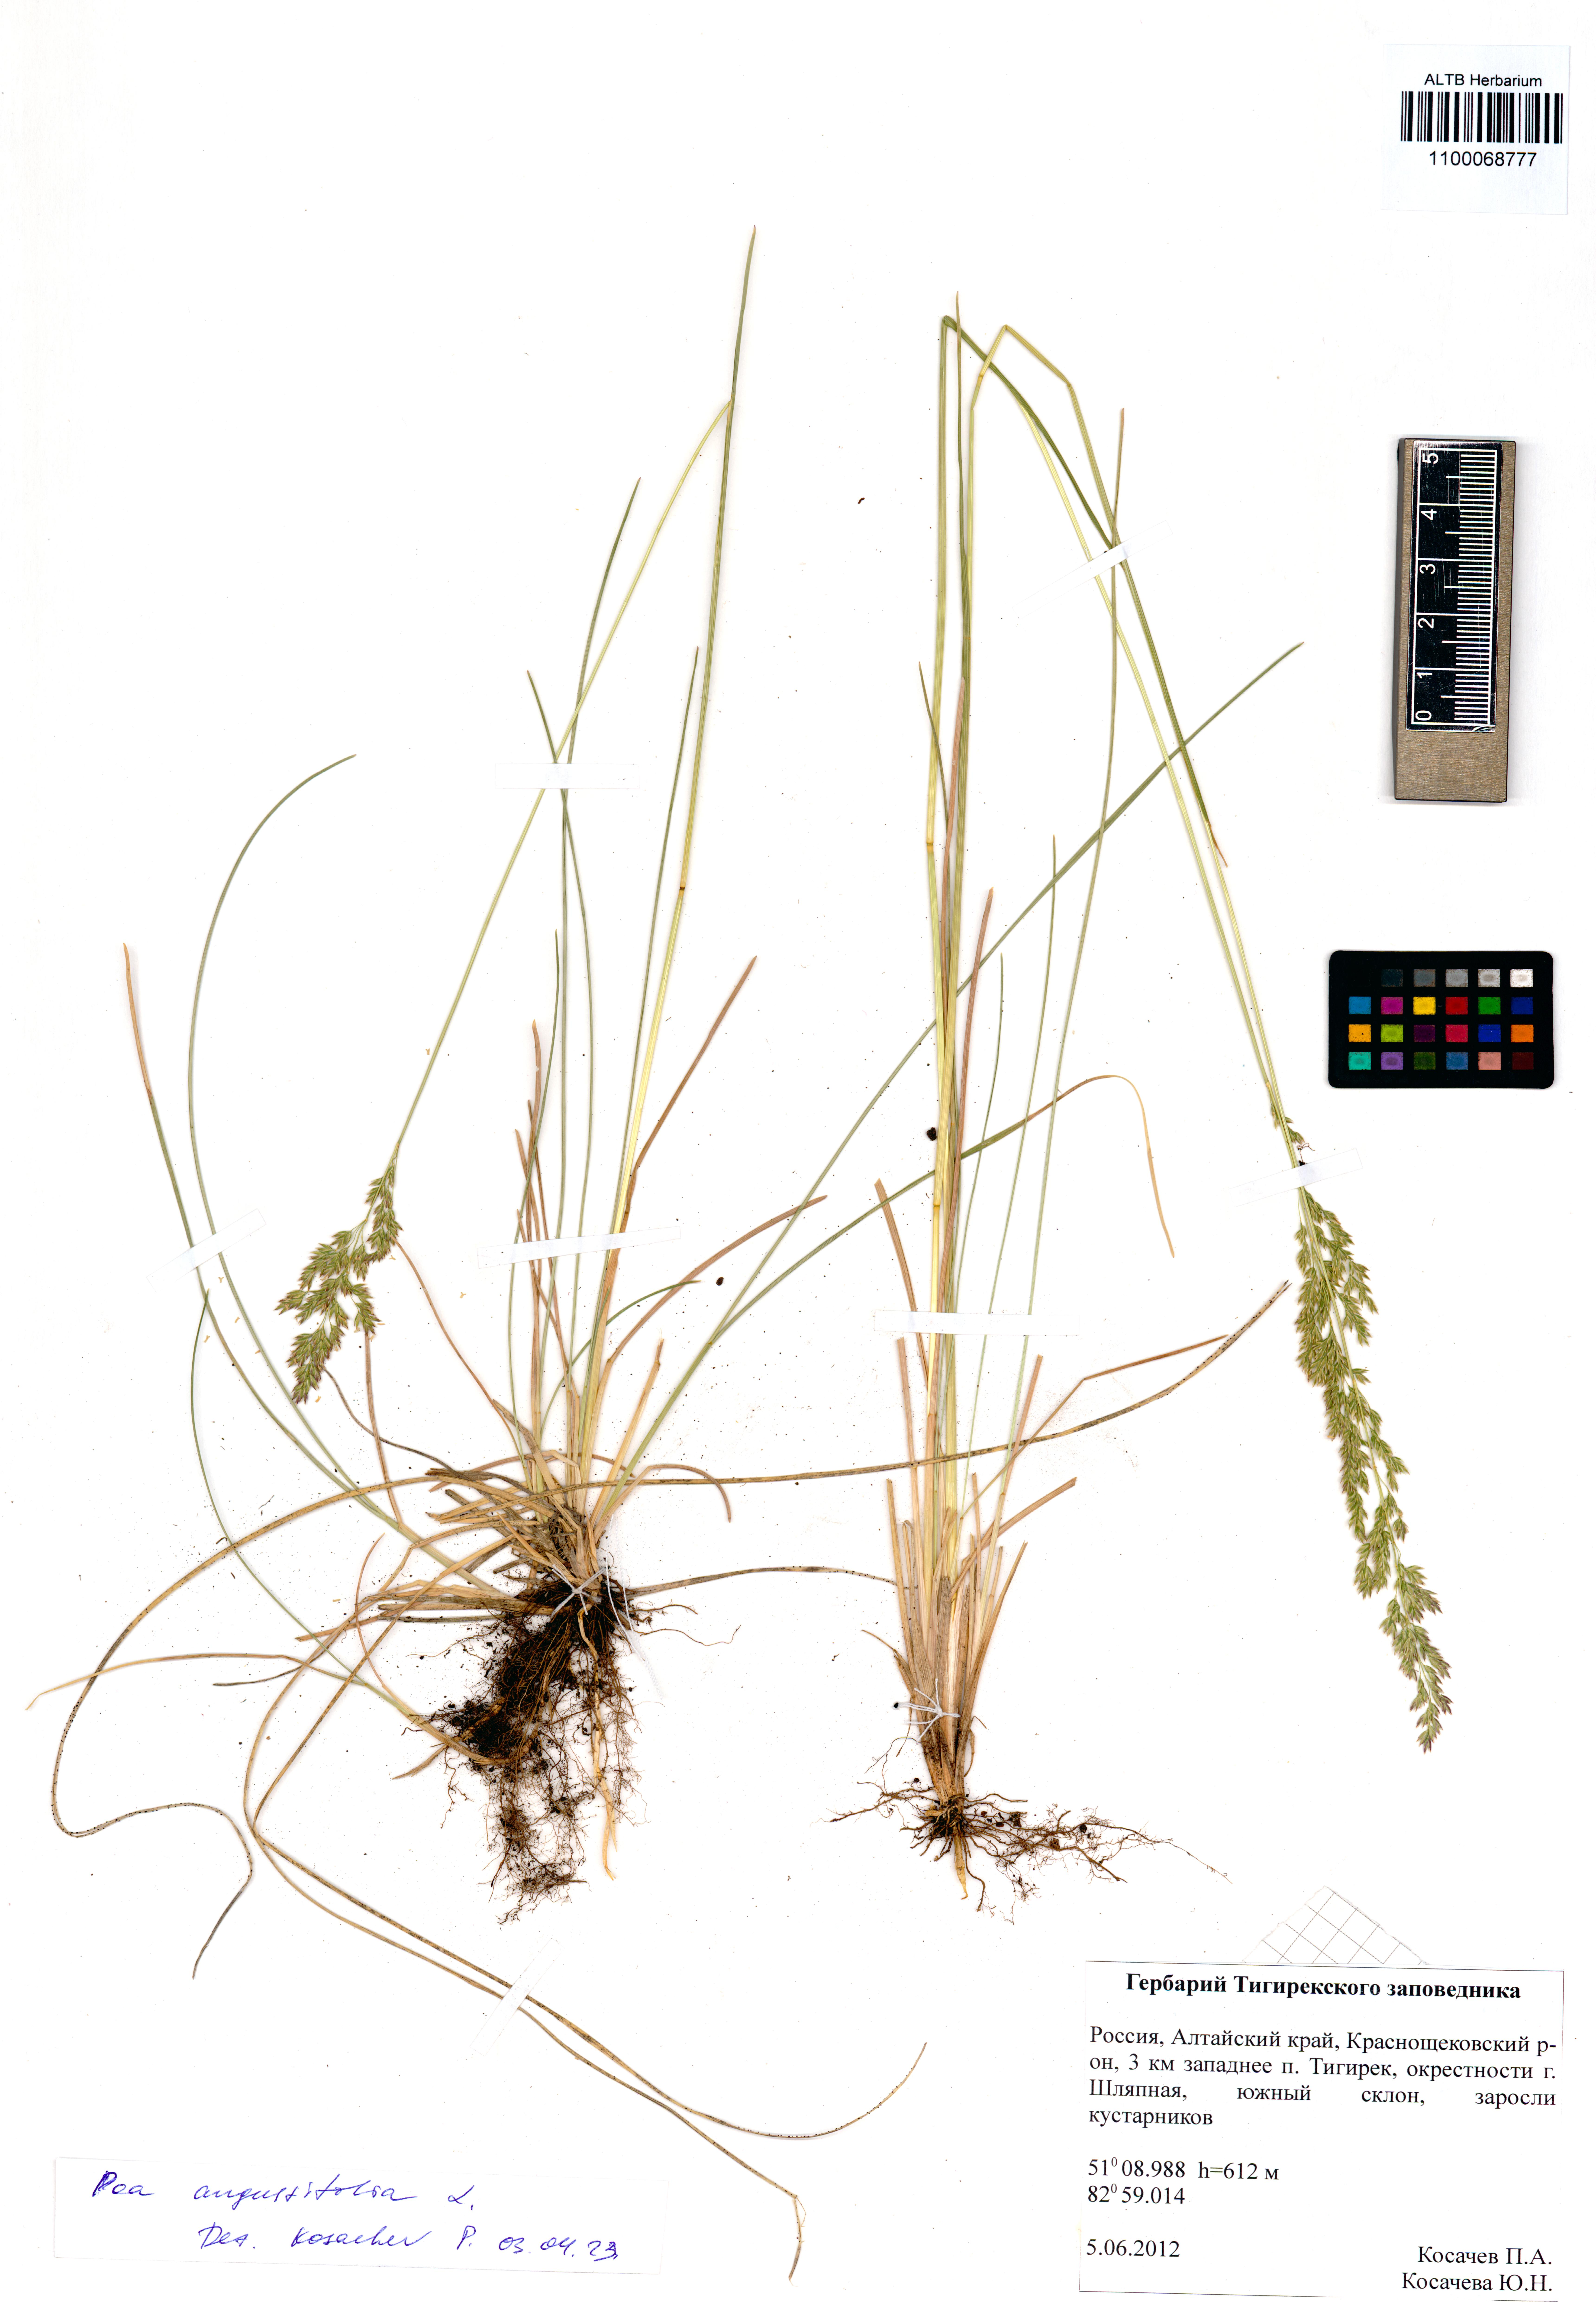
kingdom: Plantae
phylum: Tracheophyta
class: Liliopsida
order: Poales
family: Poaceae
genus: Poa
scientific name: Poa angustifolia
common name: Narrow-leaved meadow-grass
